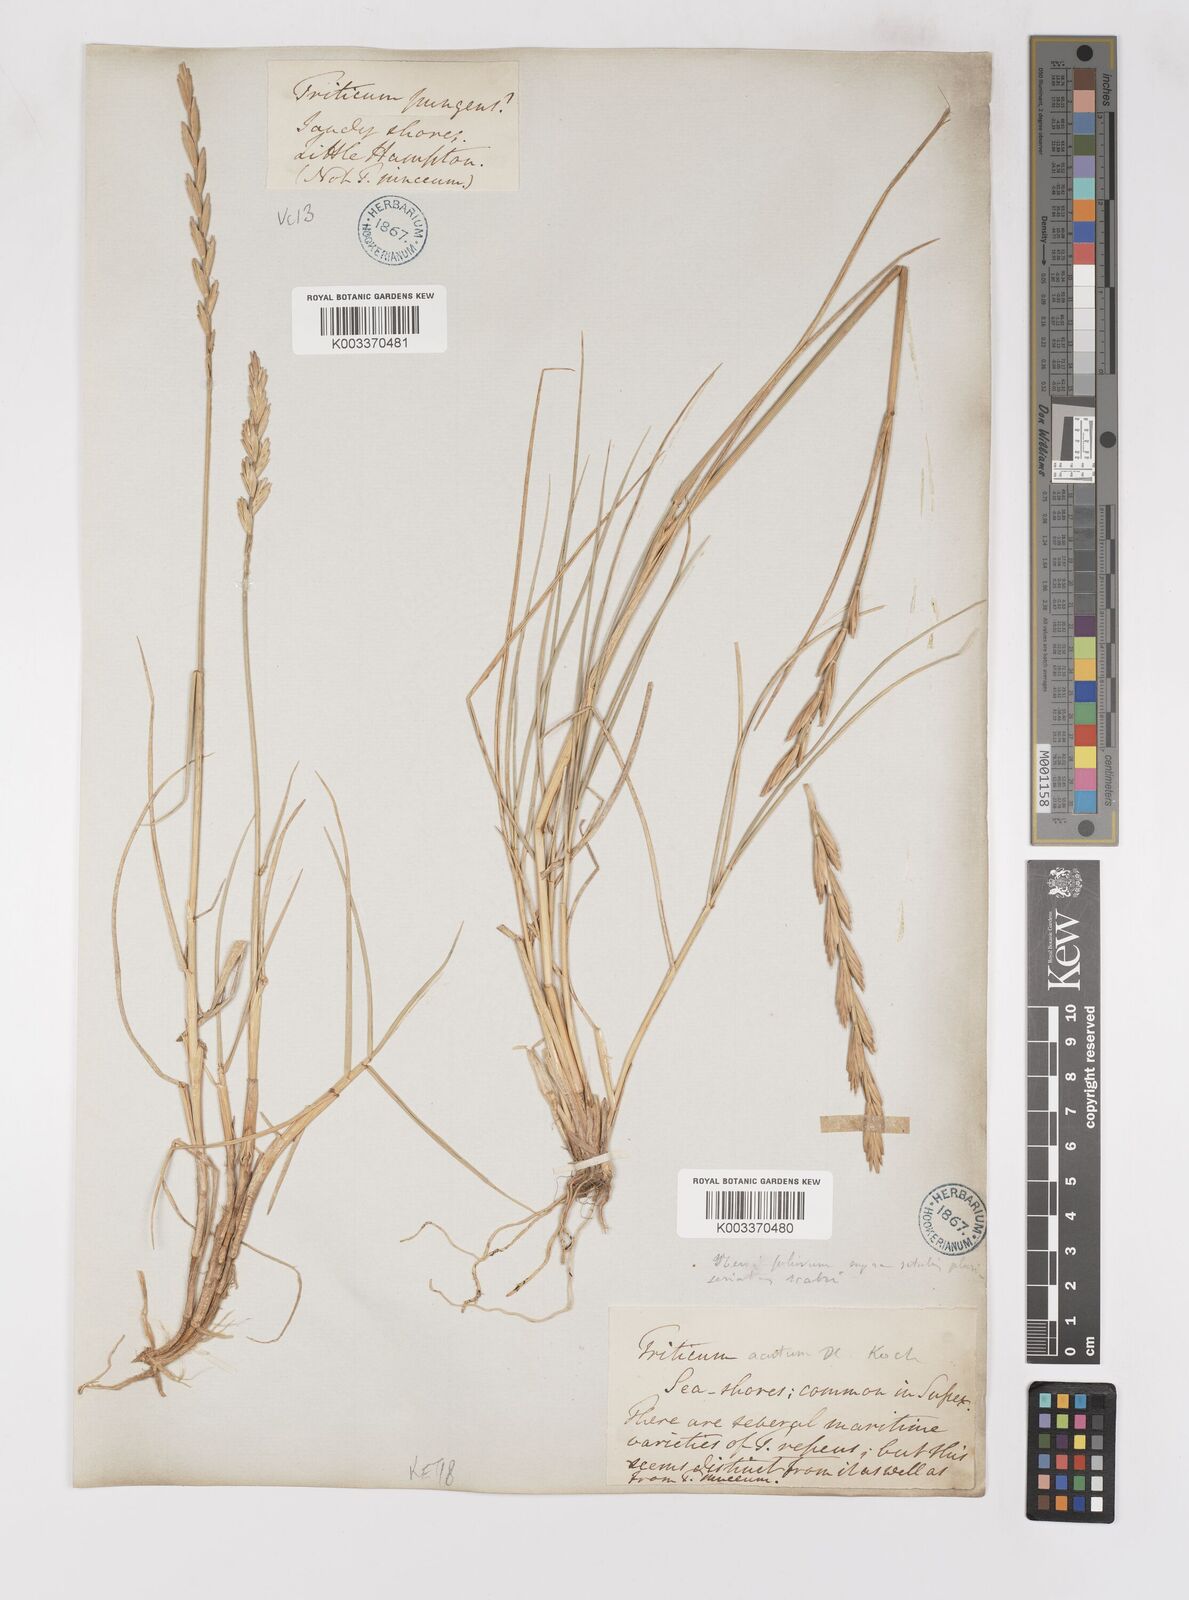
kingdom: Plantae
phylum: Tracheophyta
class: Liliopsida
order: Poales
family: Poaceae
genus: Thinoelymus
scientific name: Thinoelymus obtusiusculus
